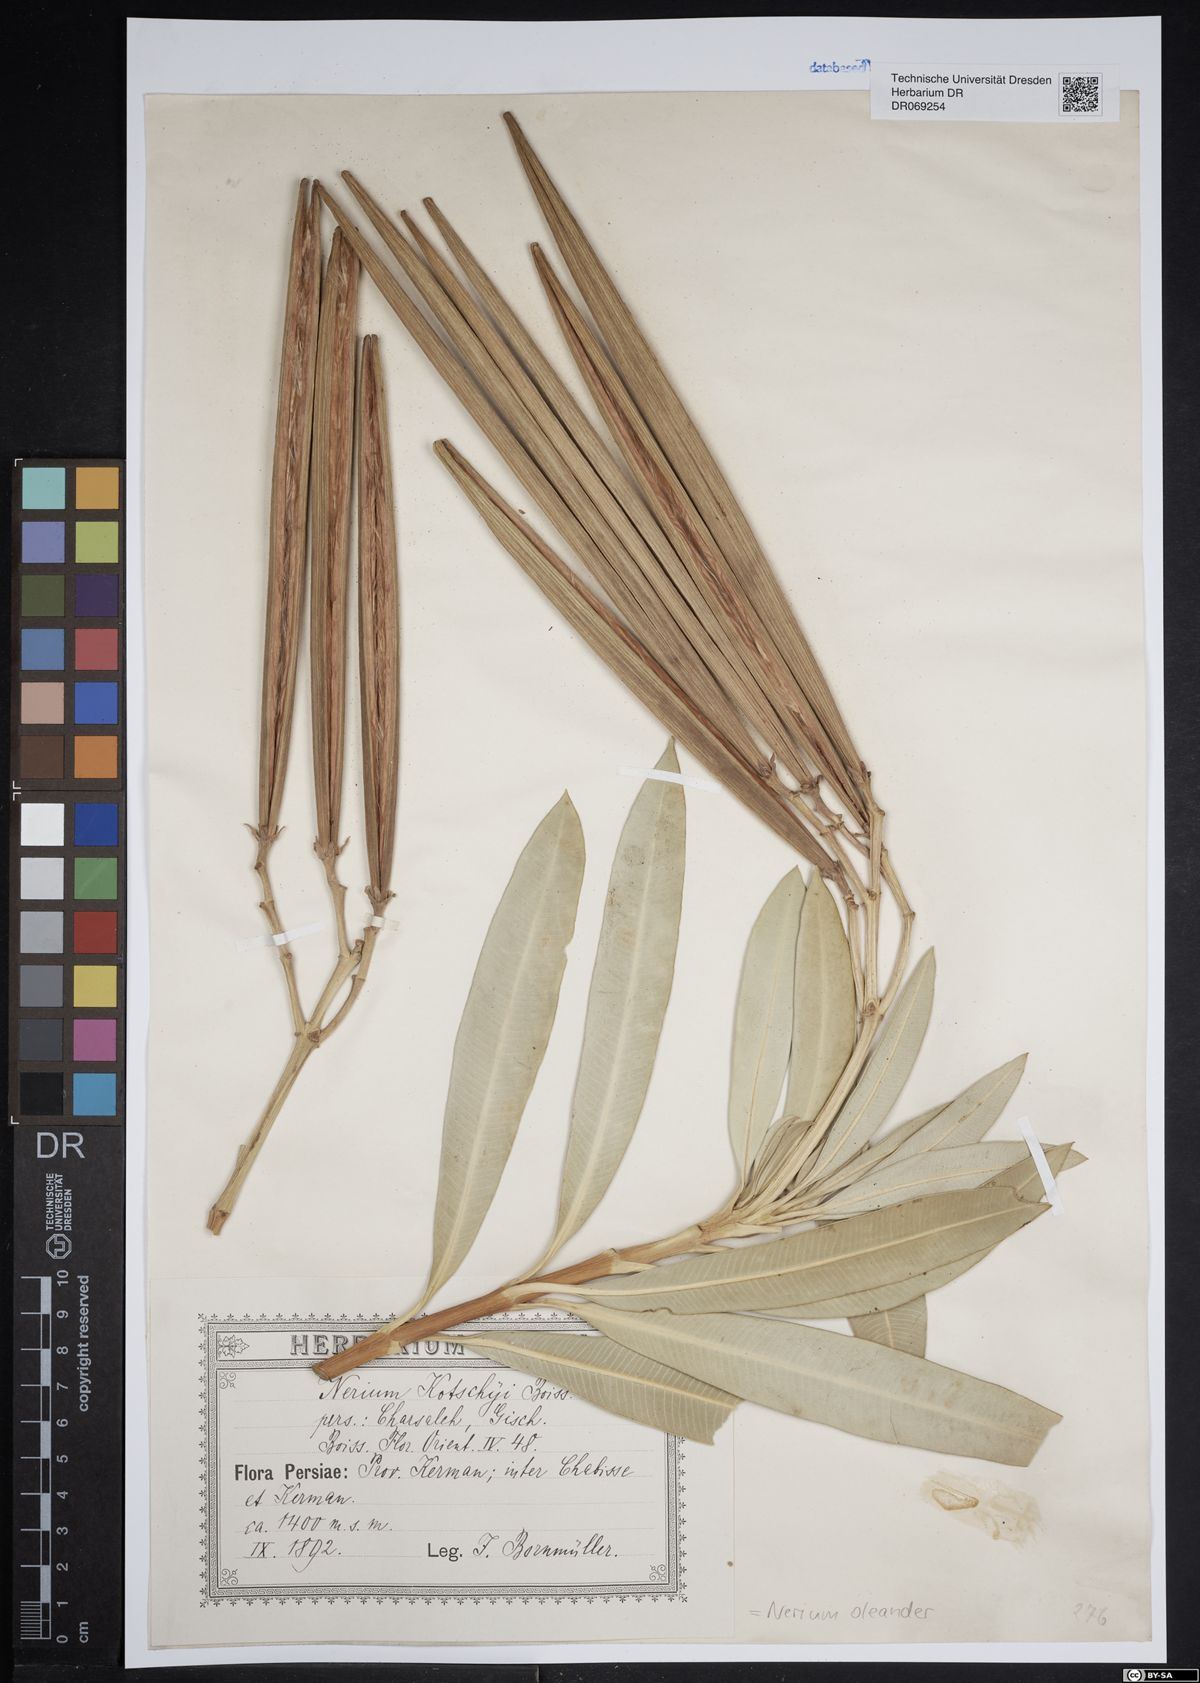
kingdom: Plantae
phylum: Tracheophyta
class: Magnoliopsida
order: Gentianales
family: Apocynaceae
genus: Nerium
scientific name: Nerium oleander
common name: Oleander
